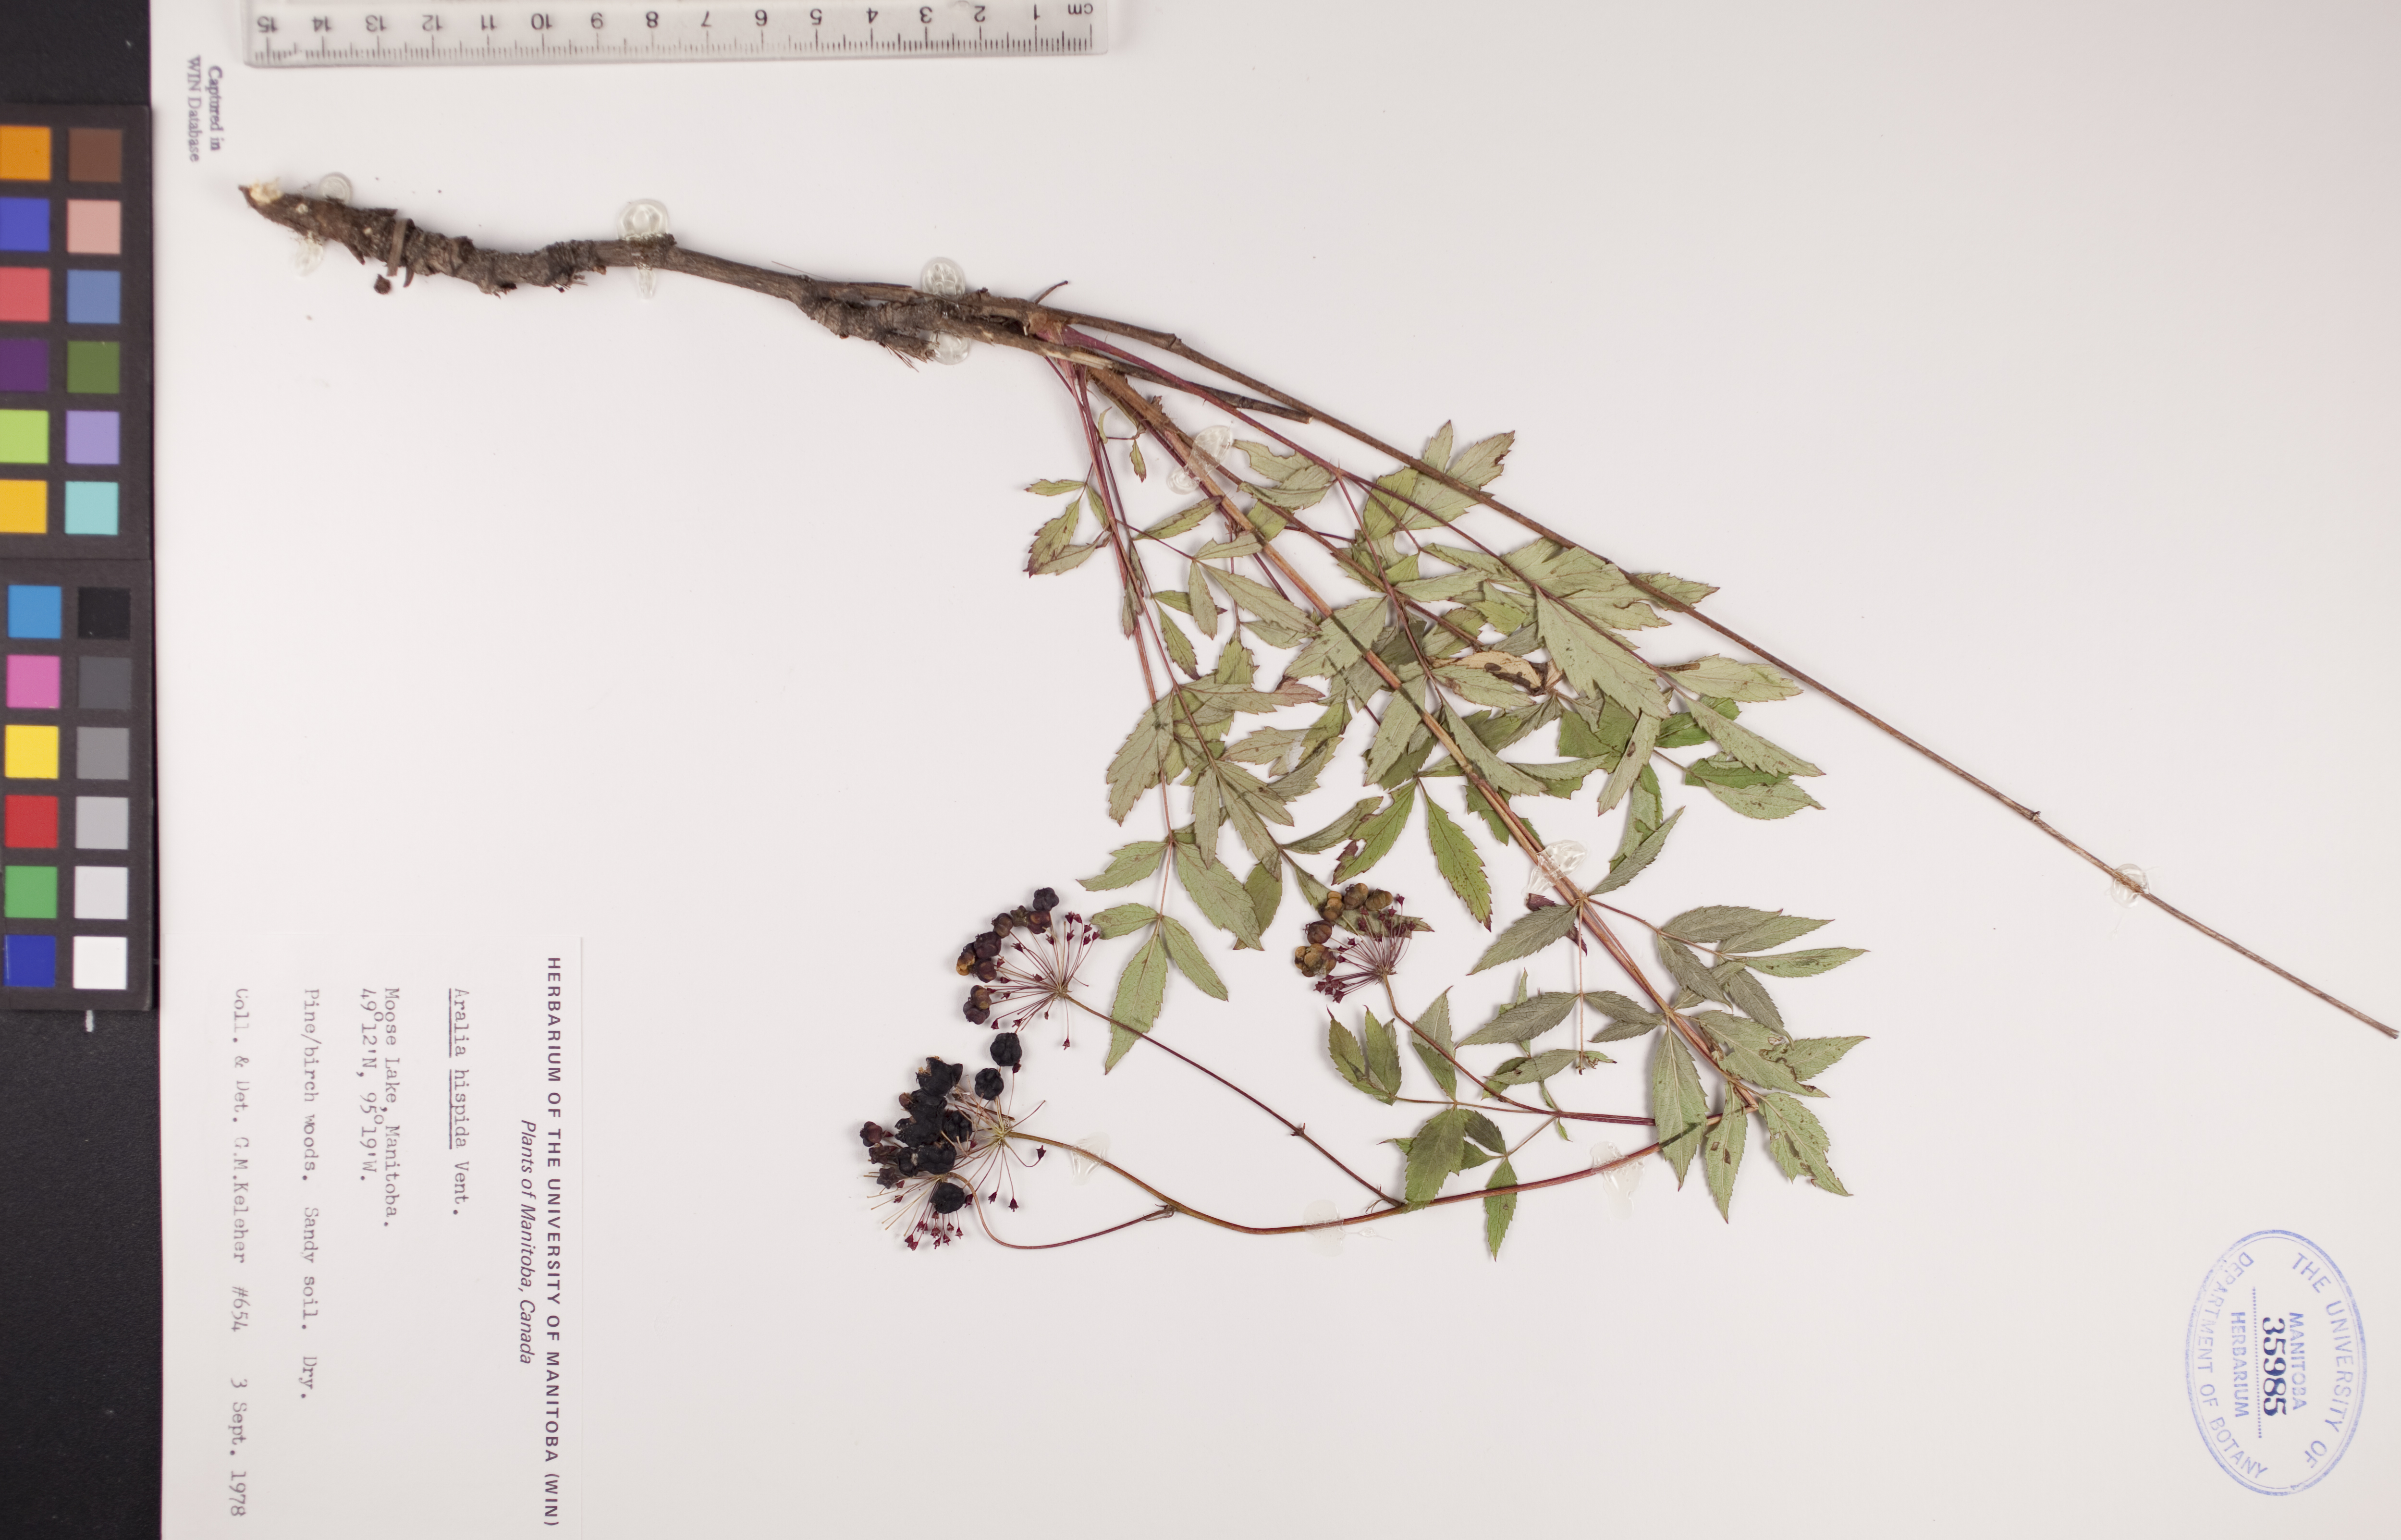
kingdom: Plantae
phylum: Tracheophyta
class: Magnoliopsida
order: Apiales
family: Araliaceae
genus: Aralia
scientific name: Aralia hispida
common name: Bristly sarsaparilla
